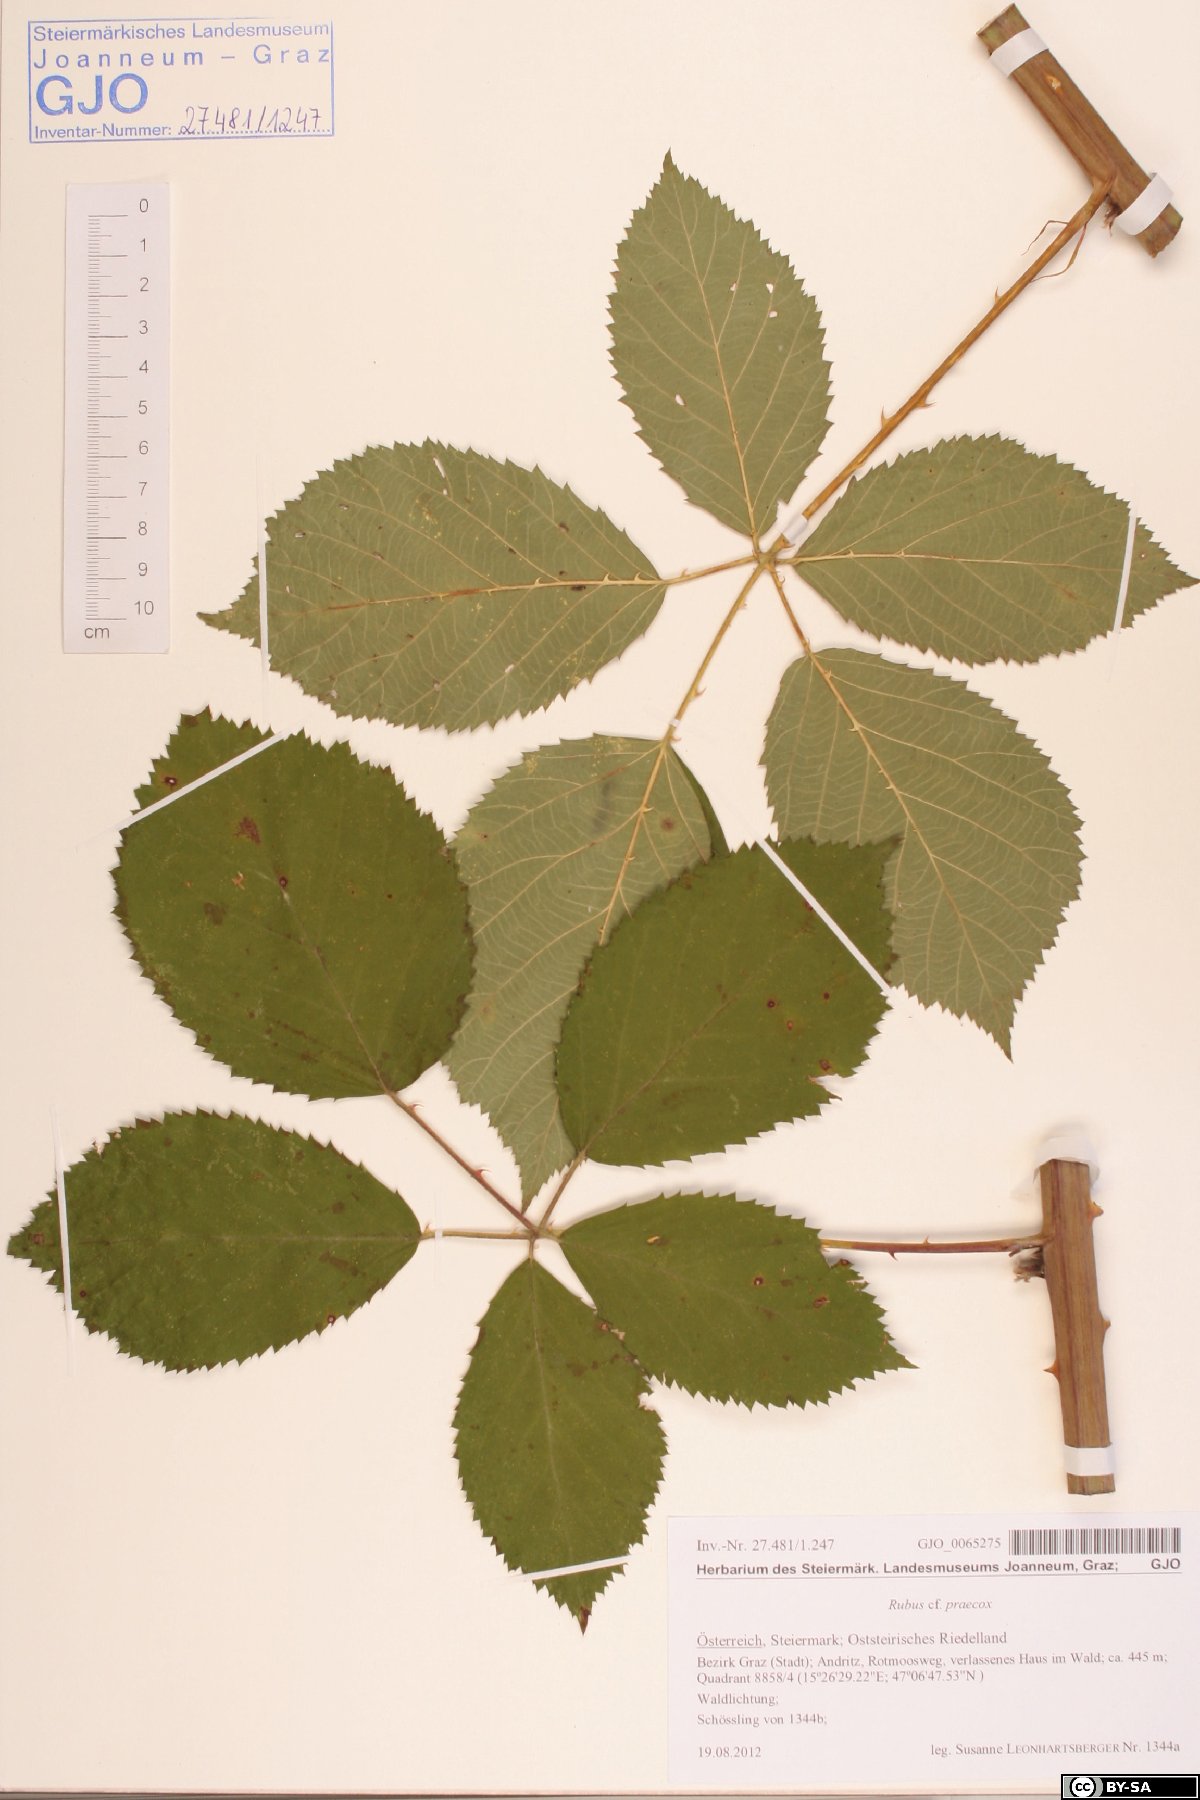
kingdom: Plantae
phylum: Tracheophyta
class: Magnoliopsida
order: Rosales
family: Rosaceae
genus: Rubus
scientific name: Rubus sulcatus
